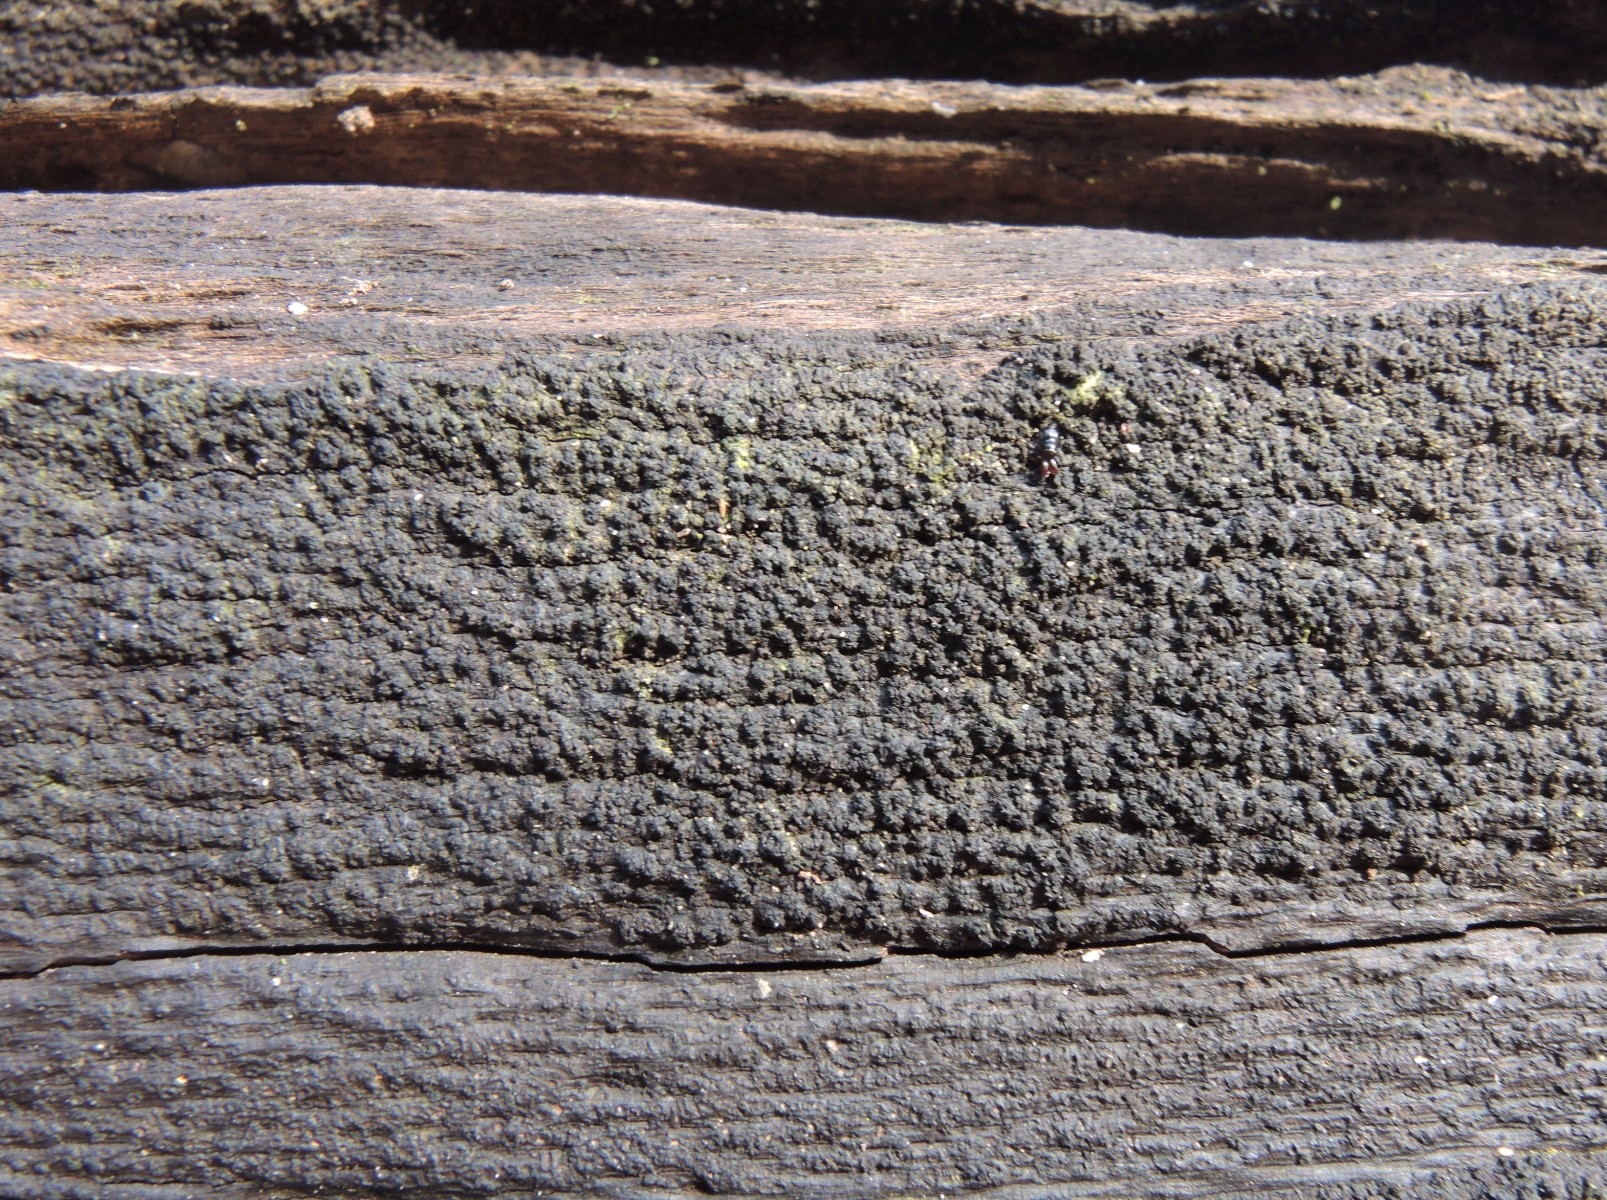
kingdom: Fungi
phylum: Ascomycota
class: Sordariomycetes
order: Xylariales
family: Diatrypaceae
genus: Eutypa
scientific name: Eutypa spinosa
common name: grov kulskorpe
